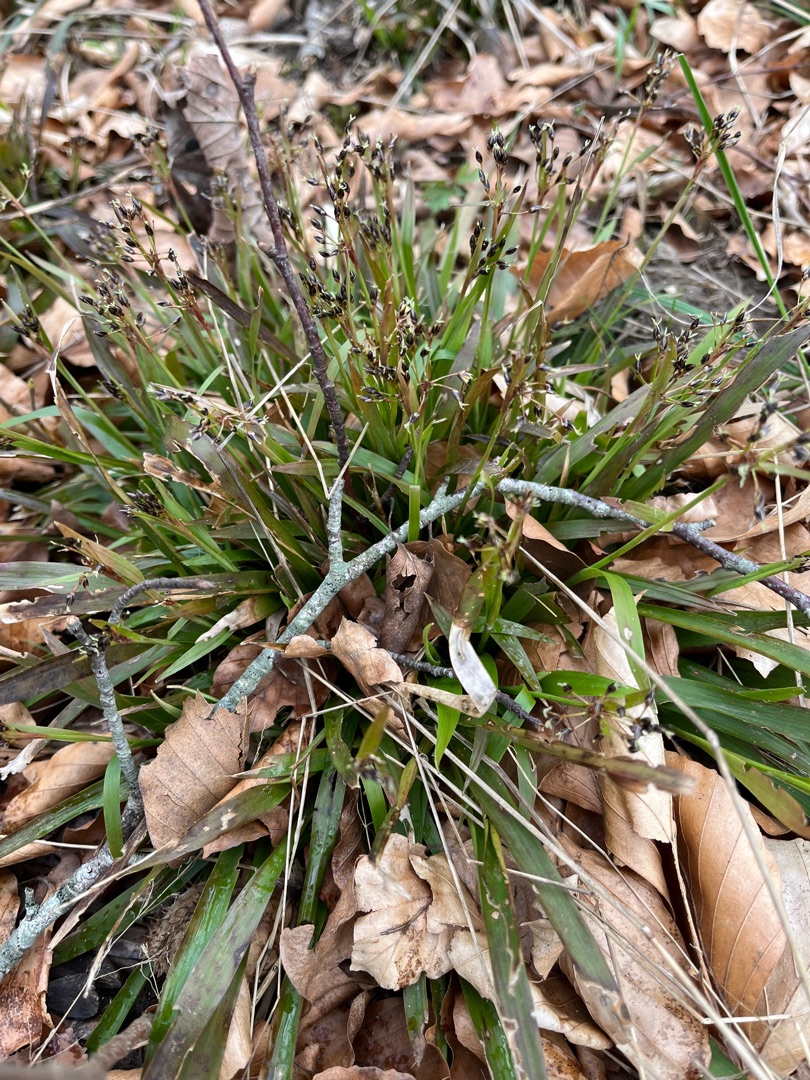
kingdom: Plantae
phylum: Tracheophyta
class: Liliopsida
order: Poales
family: Juncaceae
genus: Luzula
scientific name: Luzula pilosa
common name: Håret frytle
